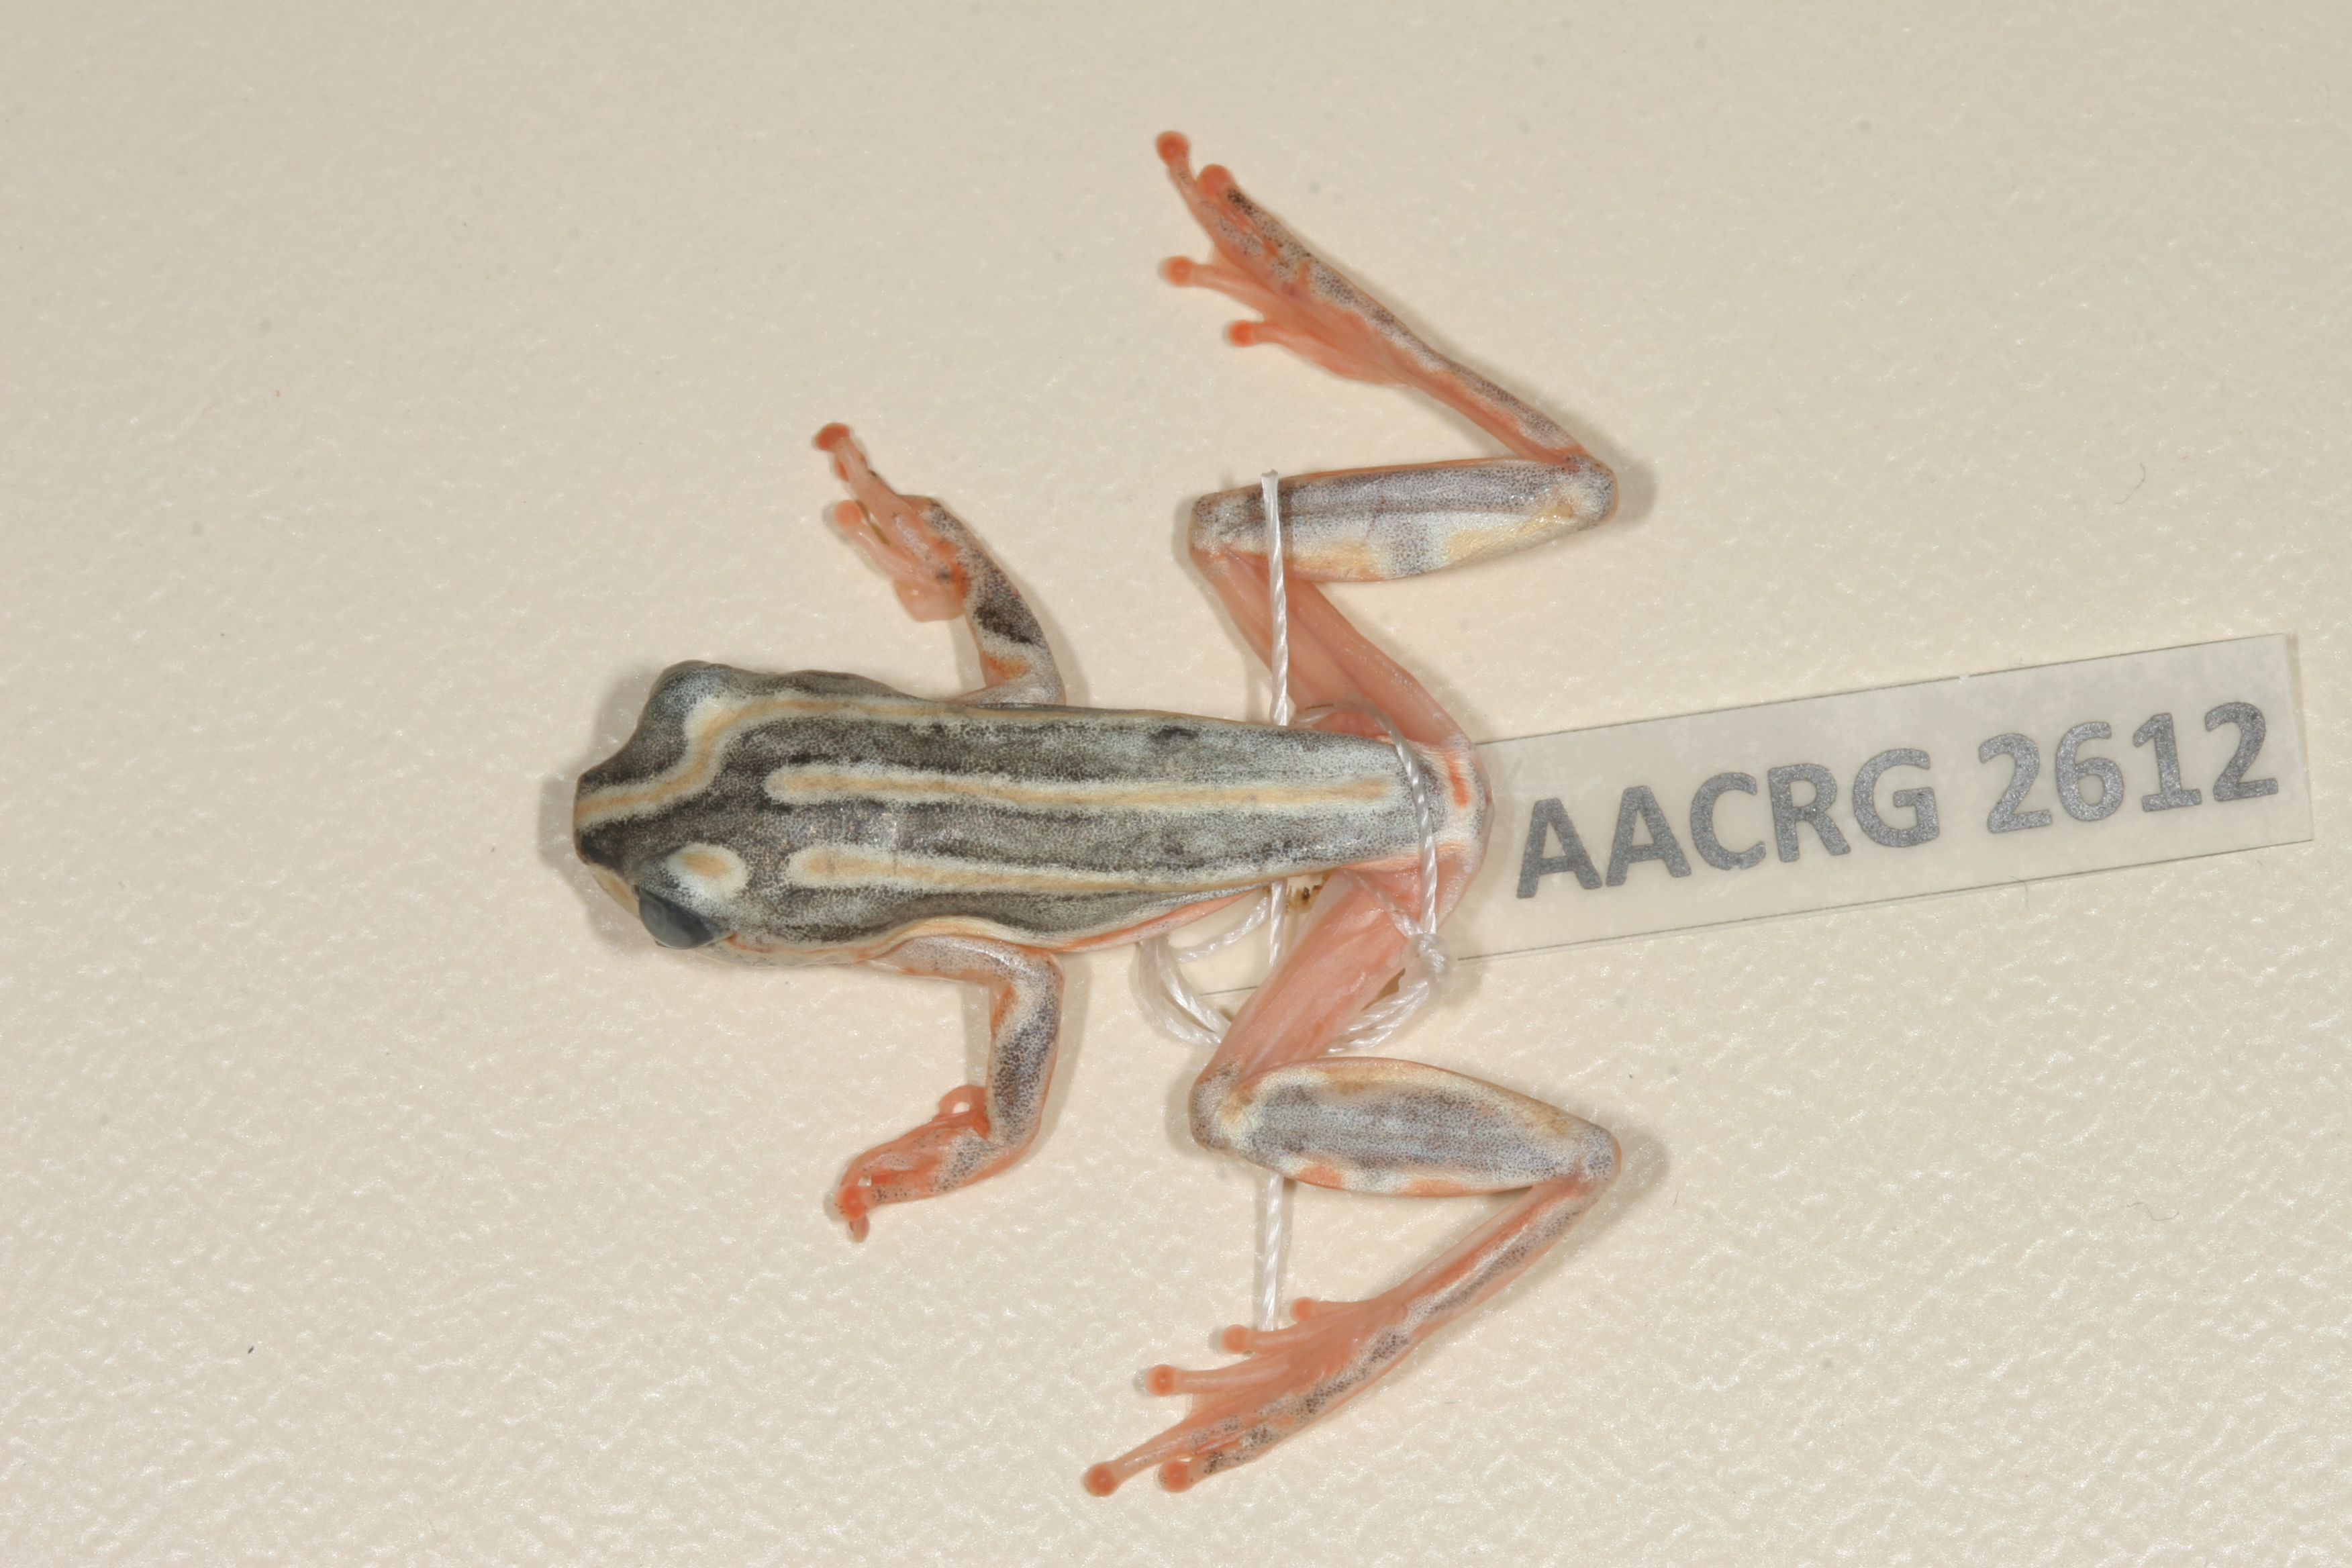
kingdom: Animalia
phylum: Chordata
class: Amphibia
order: Anura
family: Hyperoliidae
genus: Hyperolius
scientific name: Hyperolius marmoratus
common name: Painted reed frog
